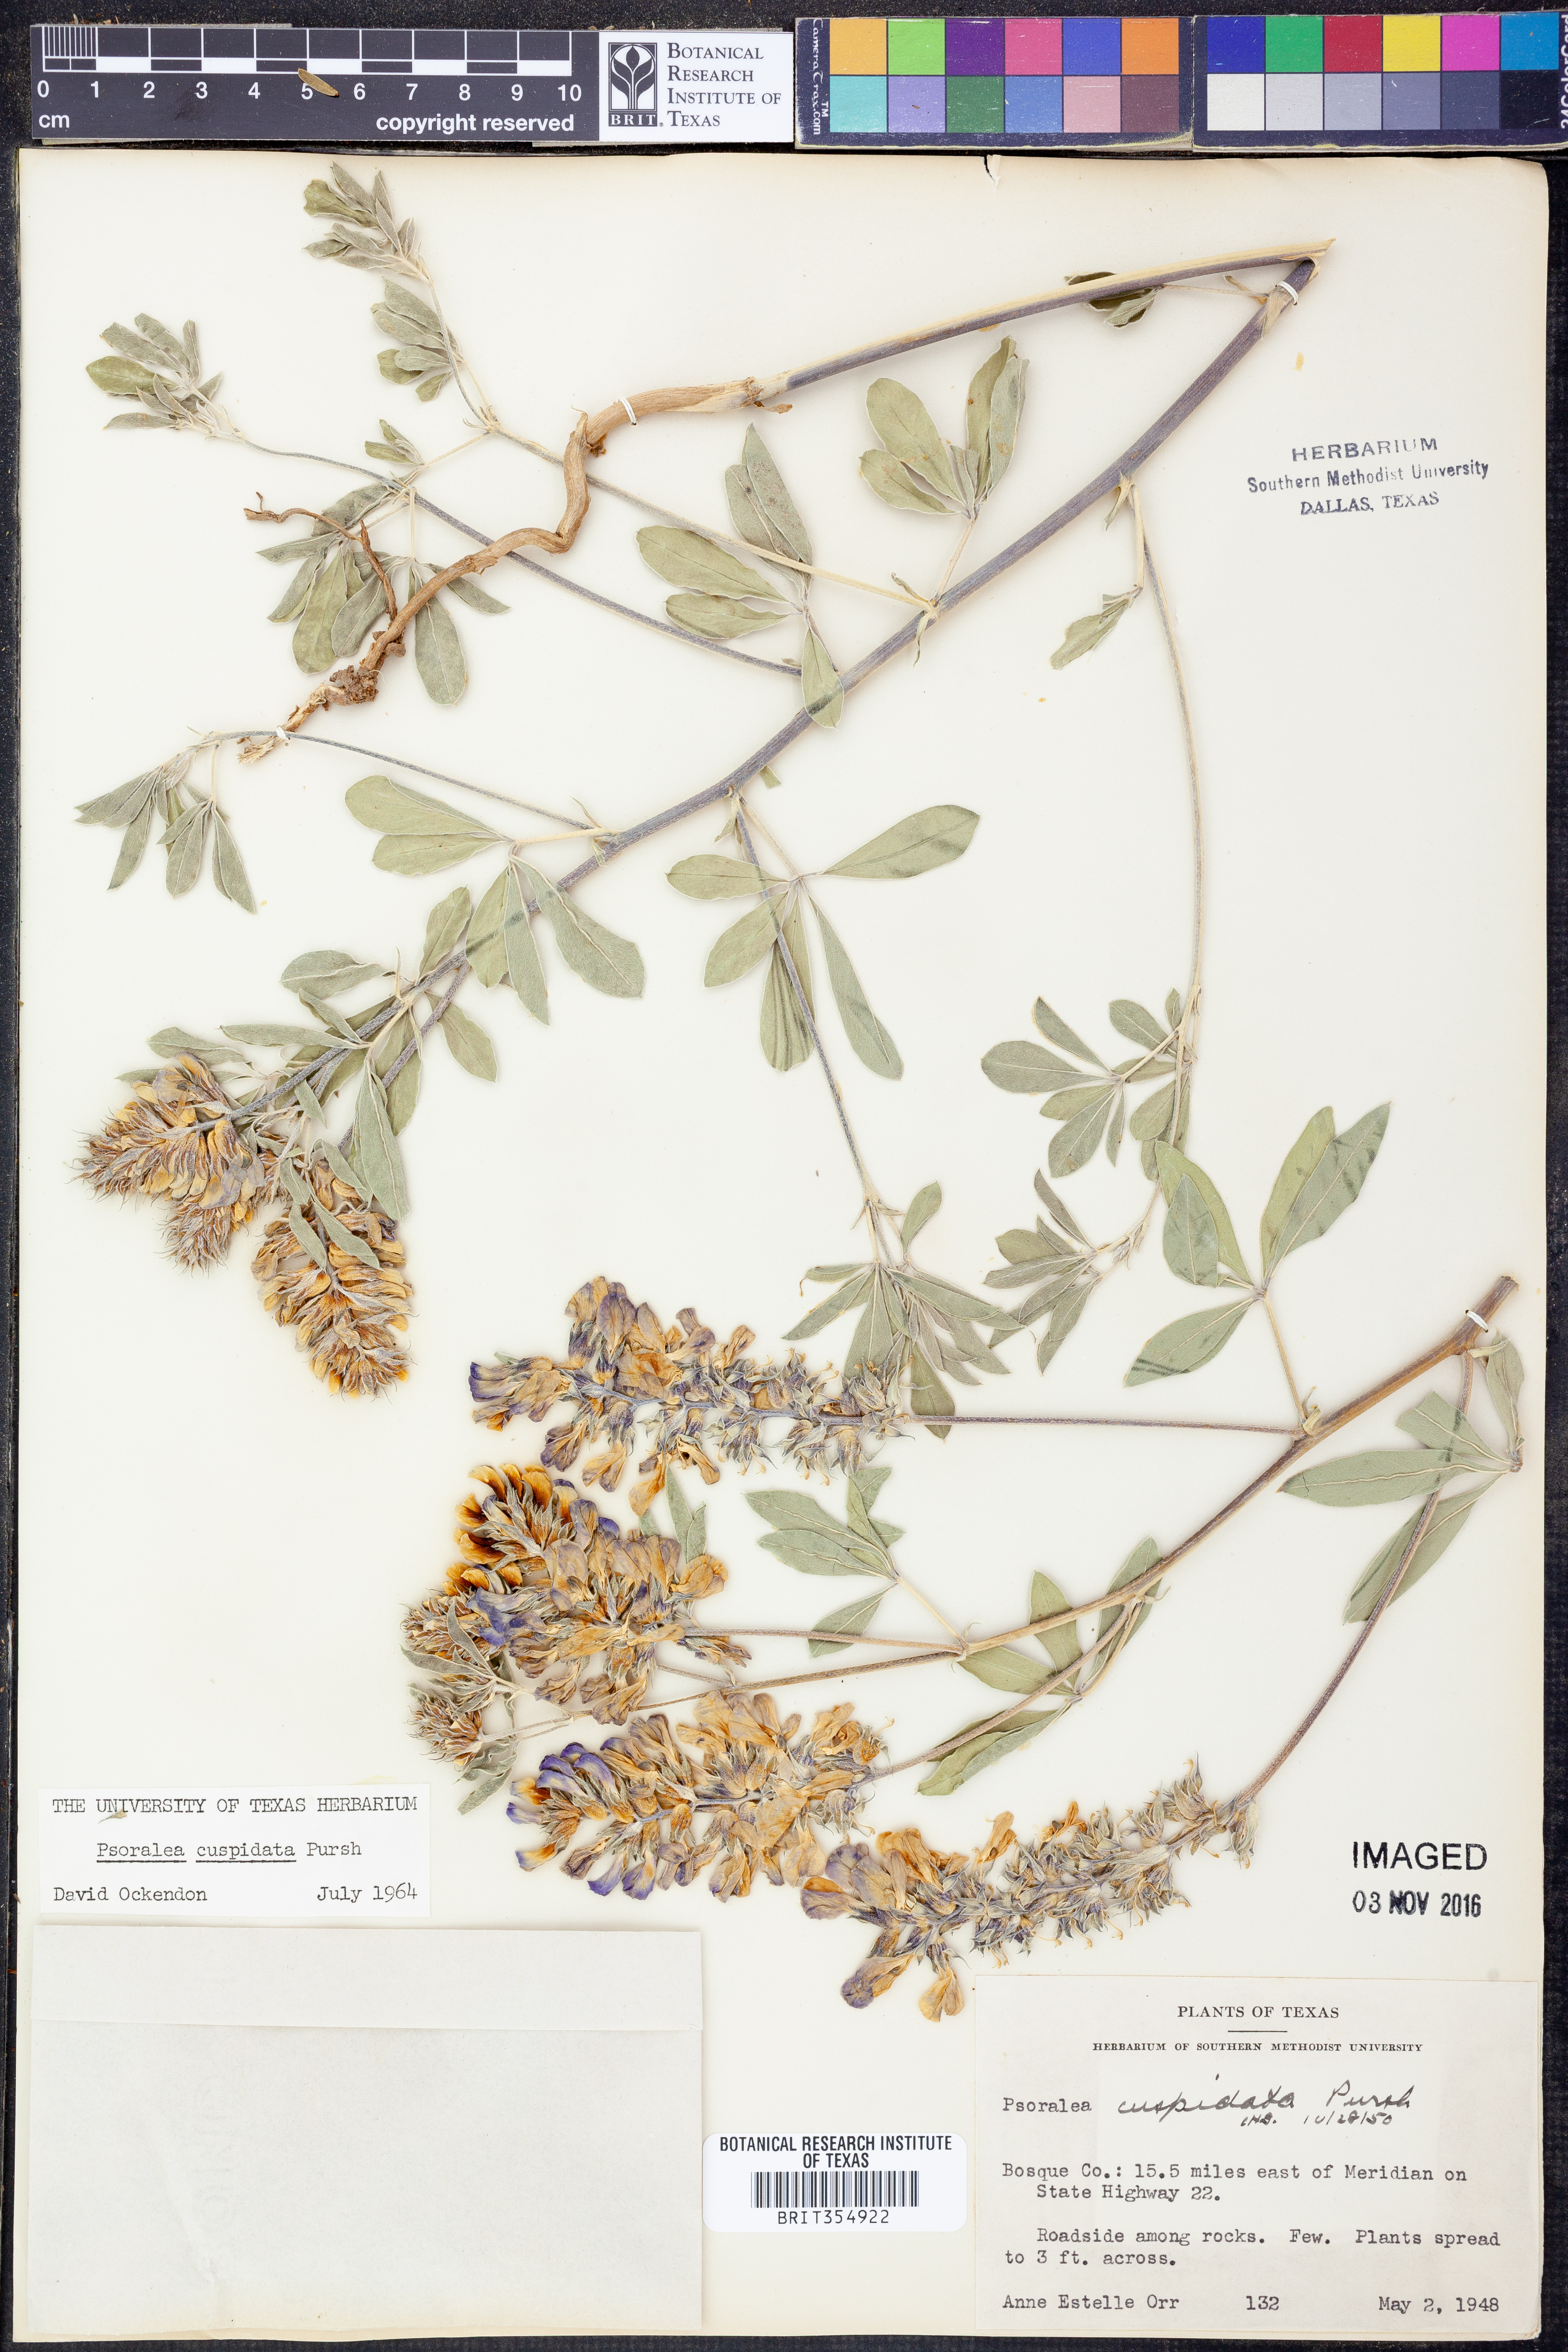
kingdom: Plantae
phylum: Tracheophyta
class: Magnoliopsida
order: Fabales
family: Fabaceae
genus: Pediomelum
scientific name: Pediomelum cuspidatum
